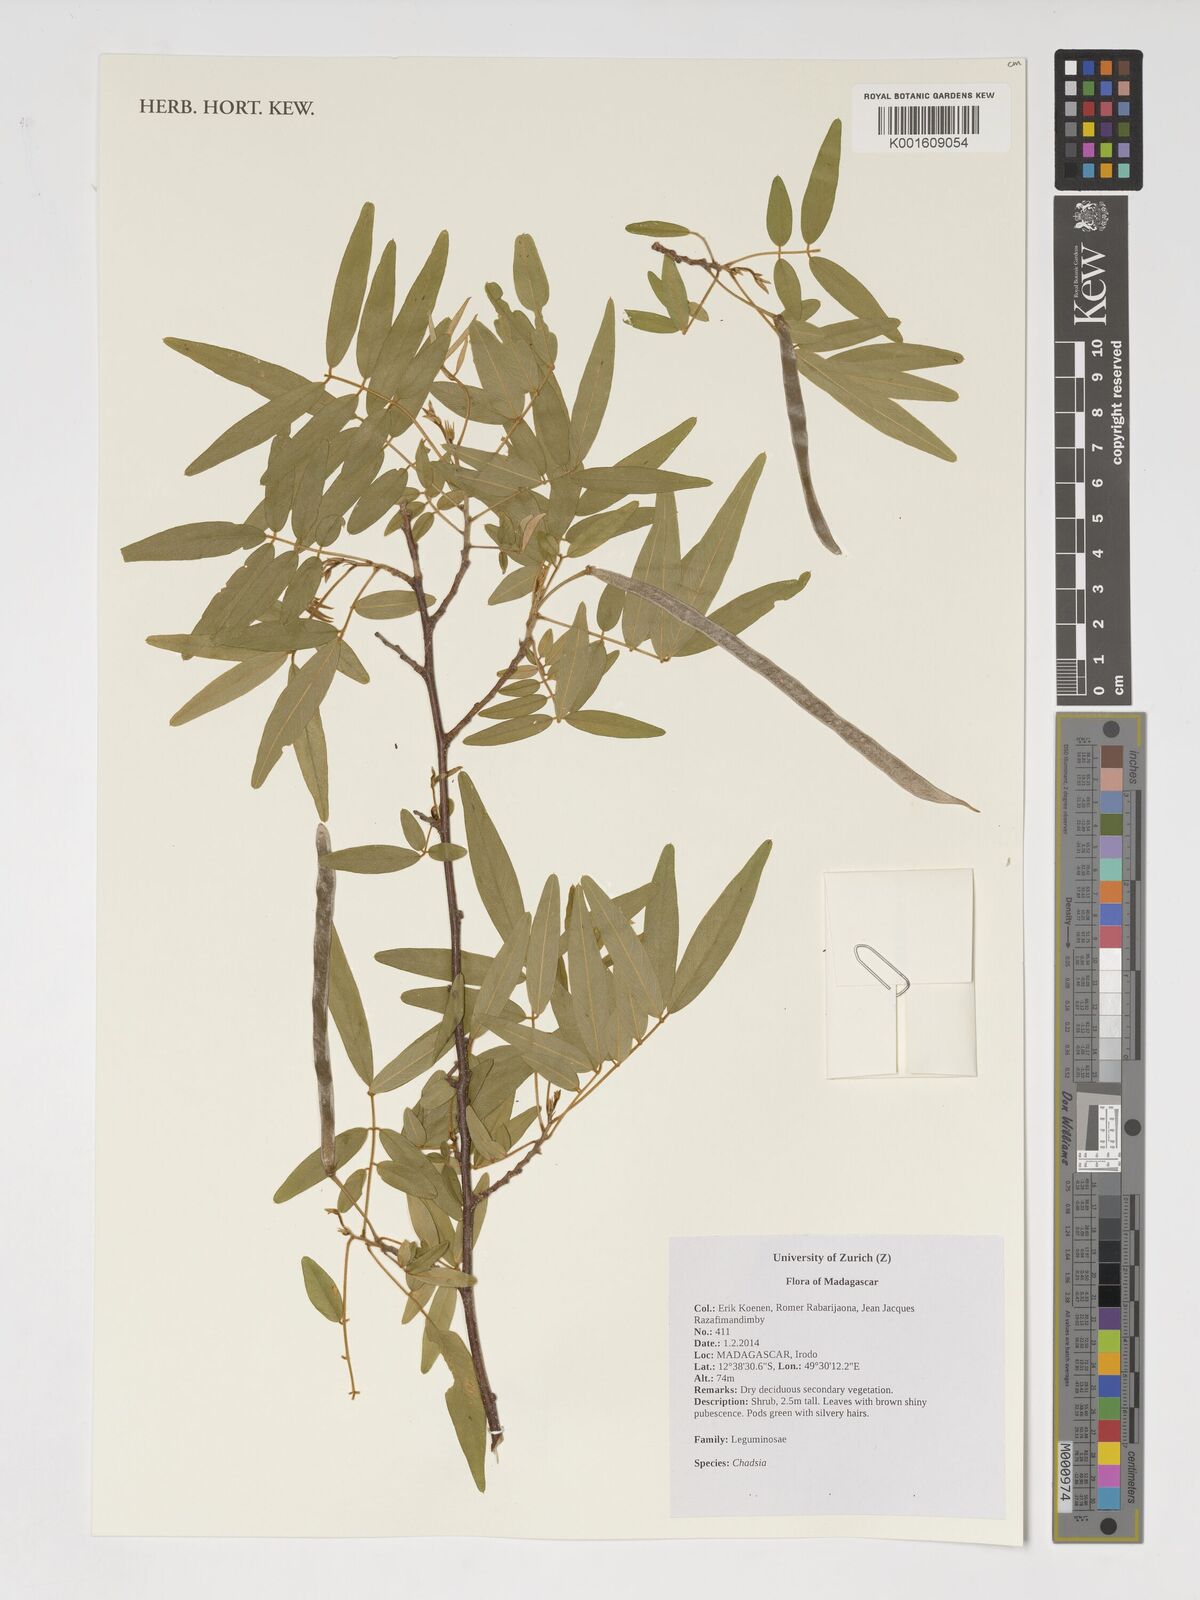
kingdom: Plantae
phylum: Tracheophyta
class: Magnoliopsida
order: Fabales
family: Fabaceae
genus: Chadsia
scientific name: Chadsia
